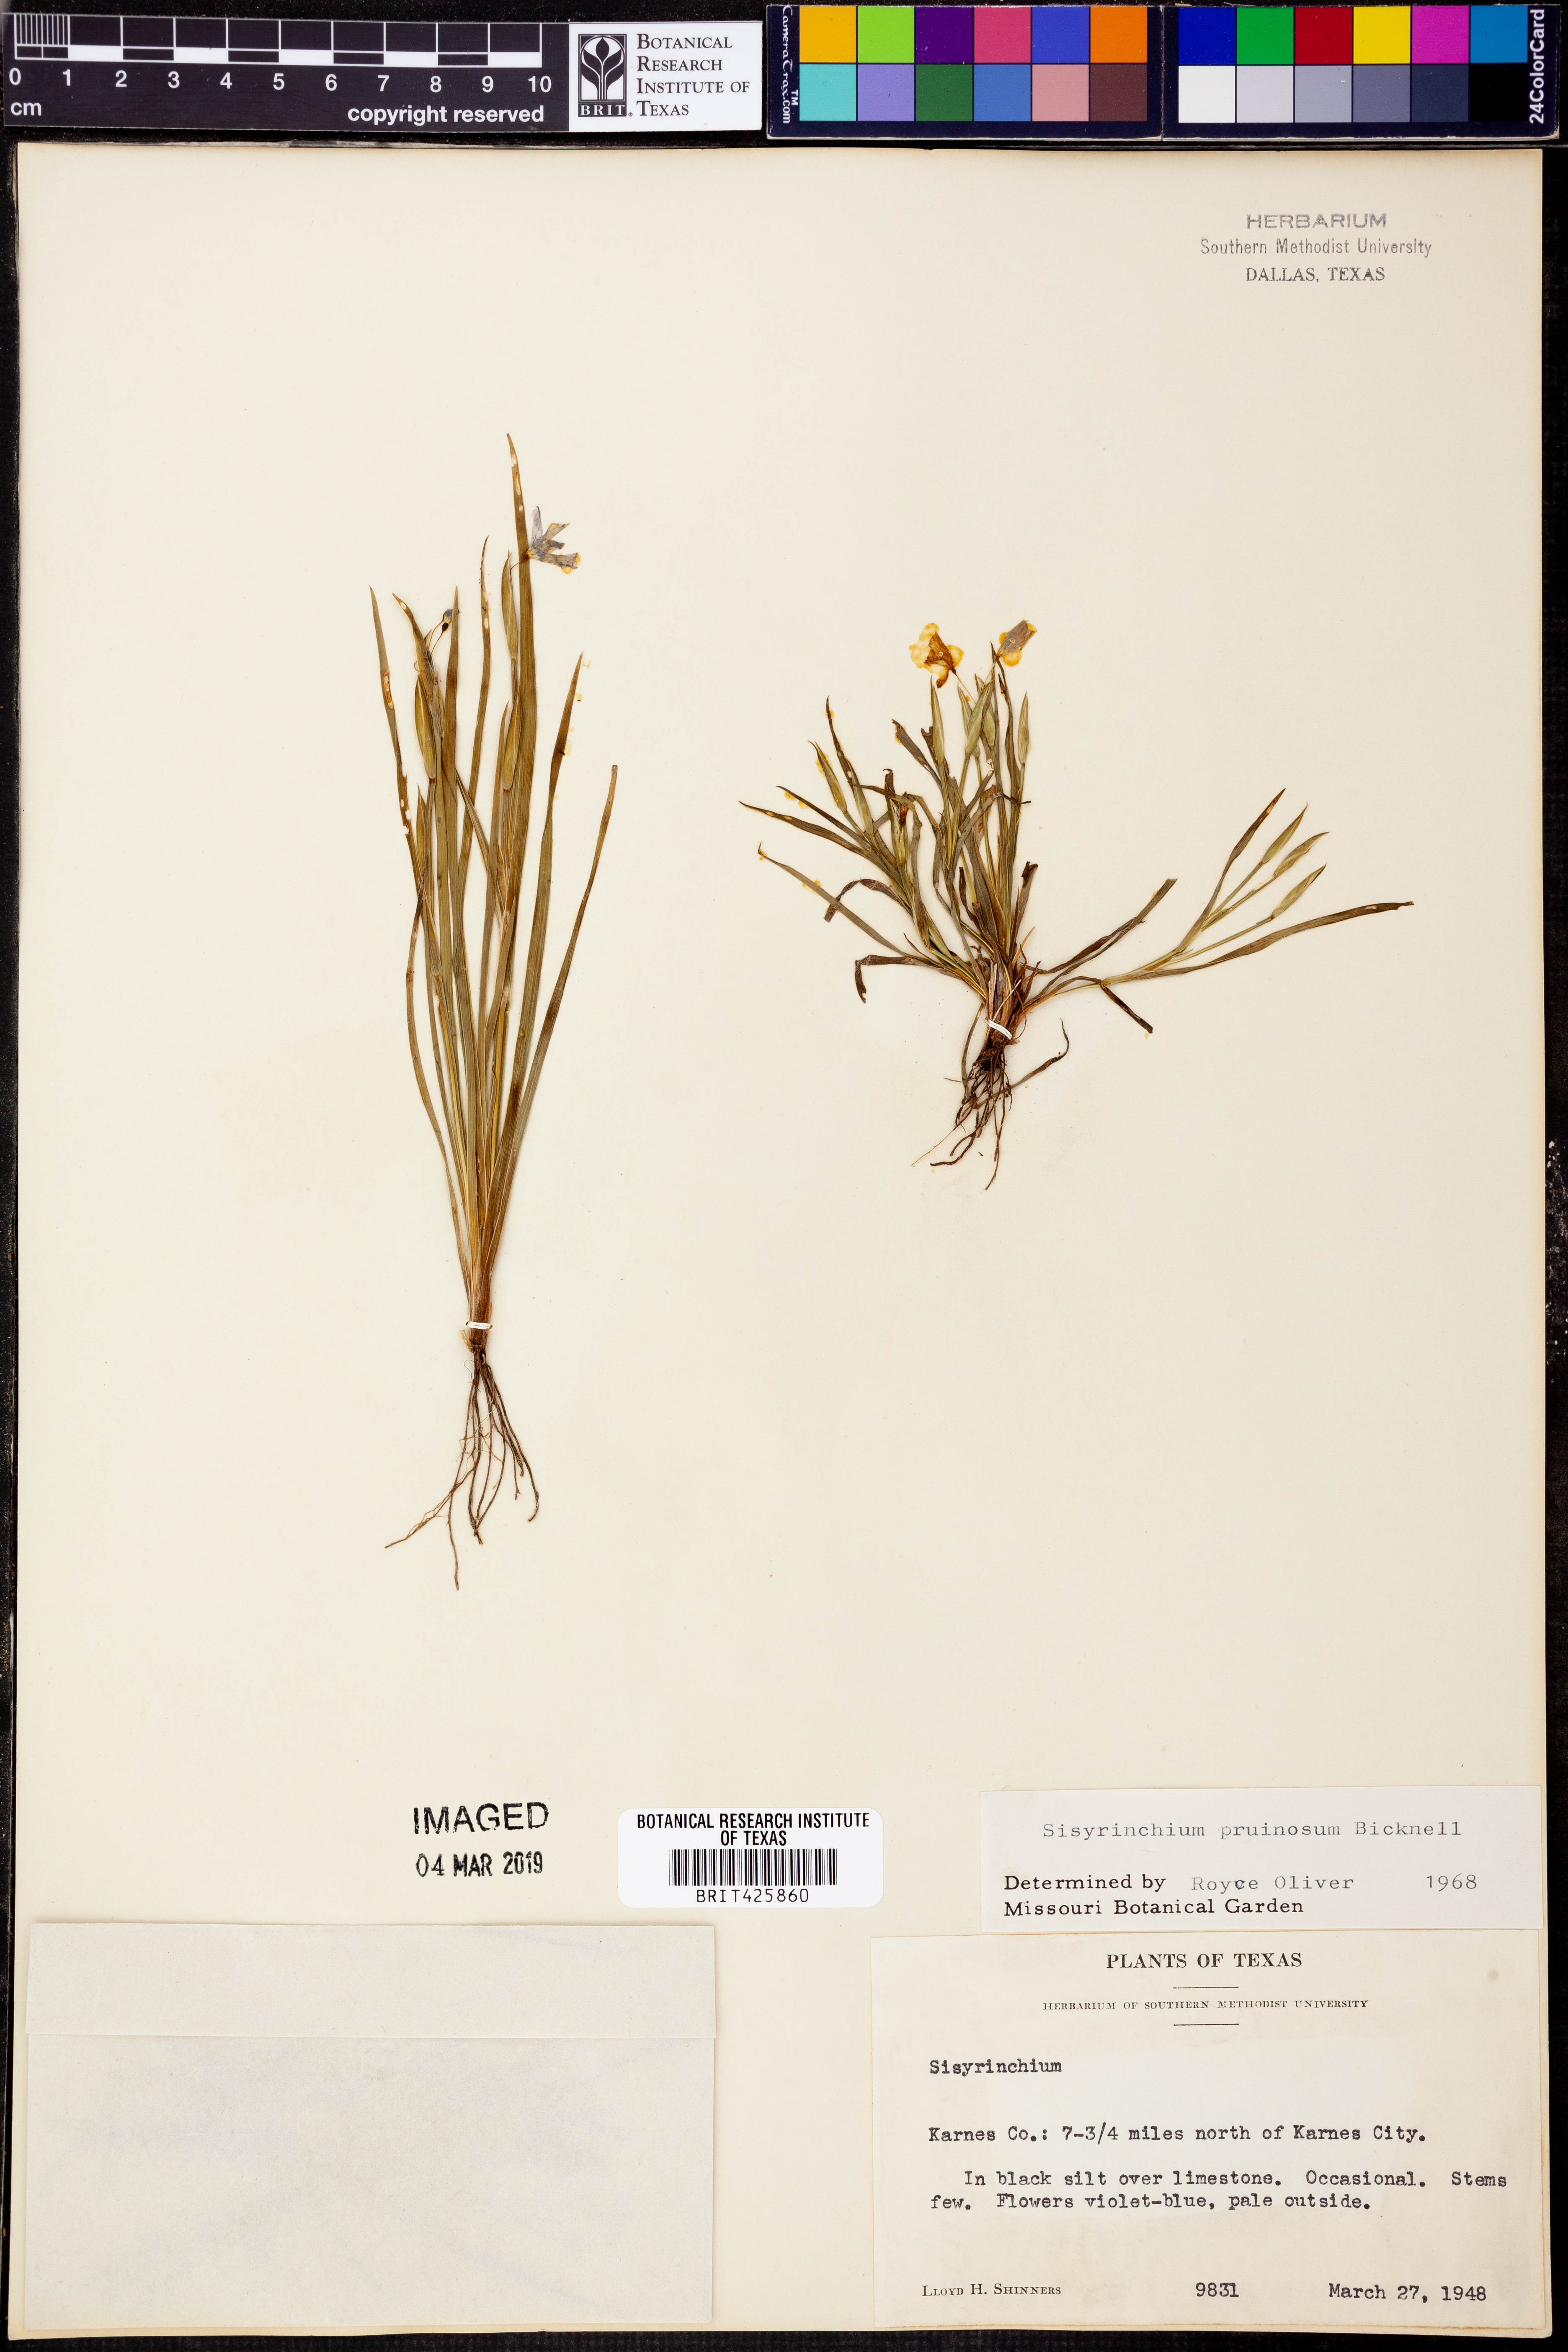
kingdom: Plantae
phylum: Tracheophyta
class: Liliopsida
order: Asparagales
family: Iridaceae
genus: Sisyrinchium
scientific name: Sisyrinchium pruinosum
